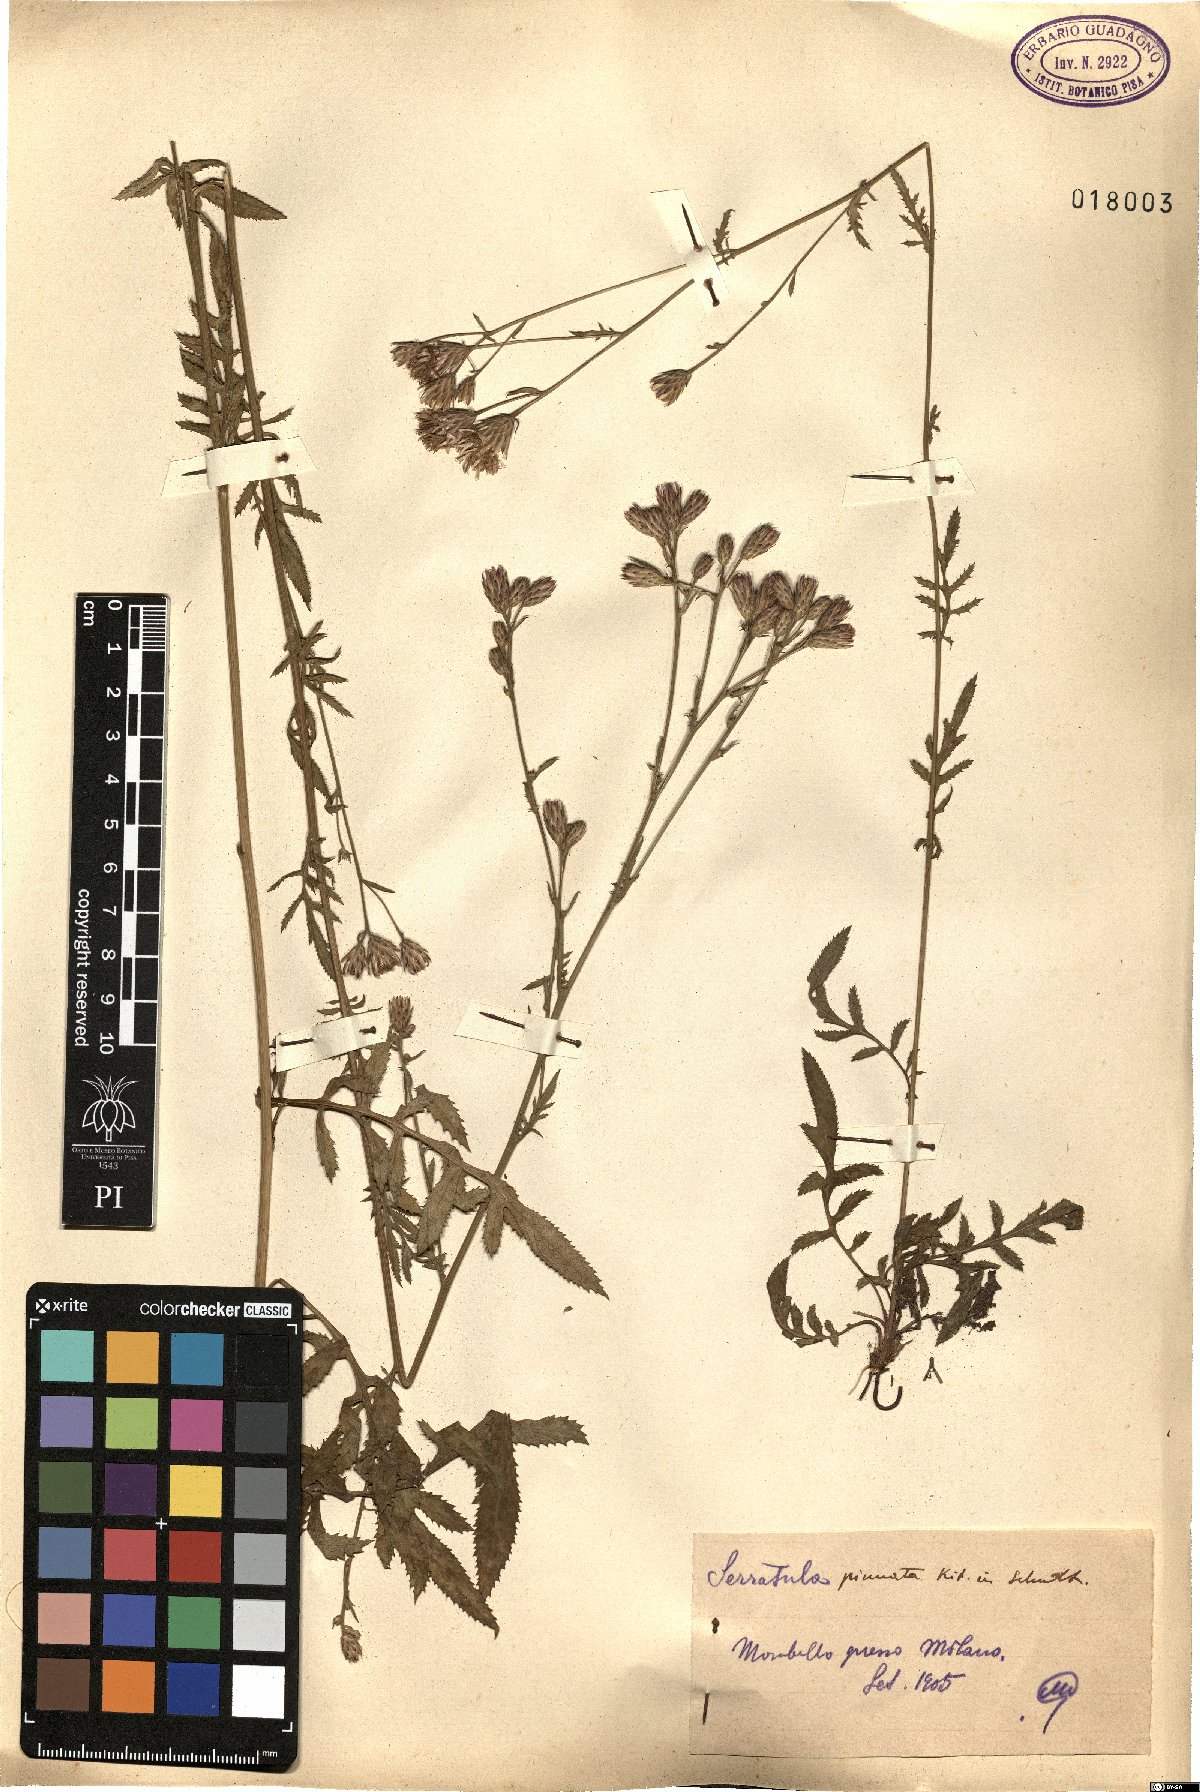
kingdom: Plantae
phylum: Tracheophyta
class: Magnoliopsida
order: Asterales
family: Asteraceae
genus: Serratula
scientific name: Serratula tinctoria
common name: Saw-wort
